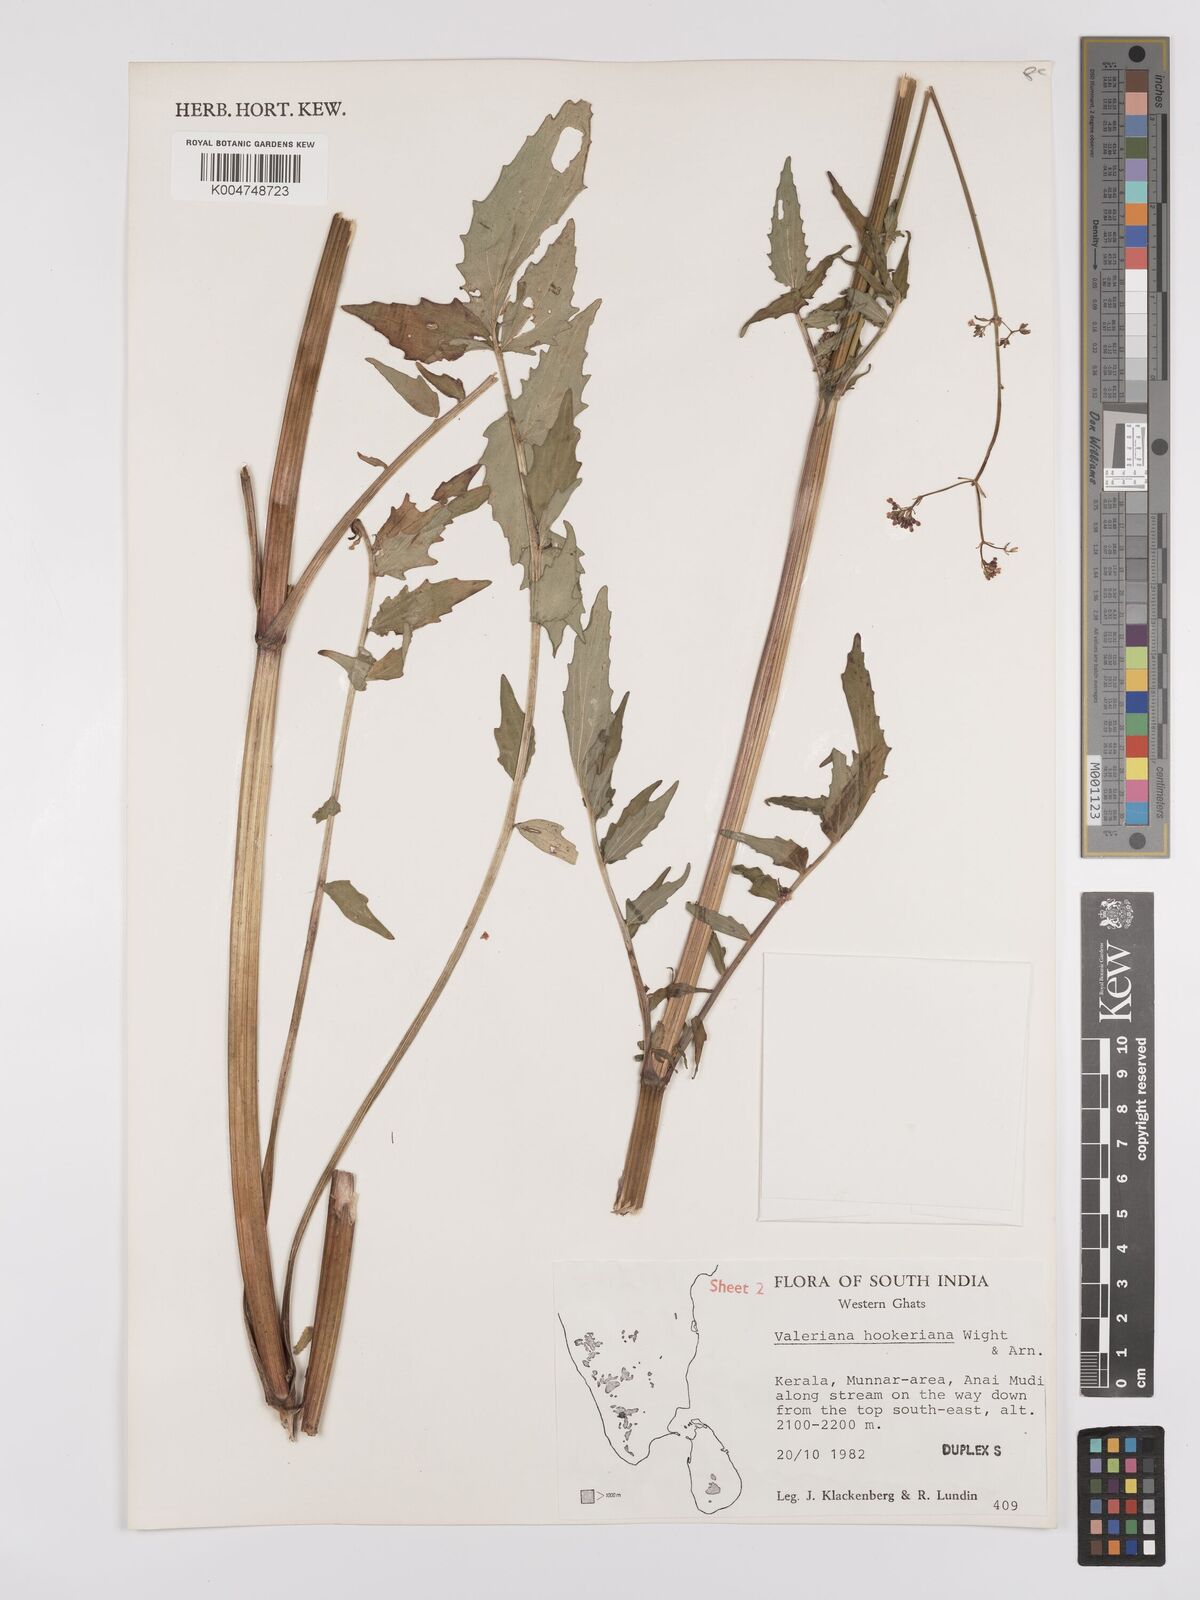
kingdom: Plantae
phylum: Tracheophyta
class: Magnoliopsida
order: Dipsacales
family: Caprifoliaceae
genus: Valeriana
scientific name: Valeriana
